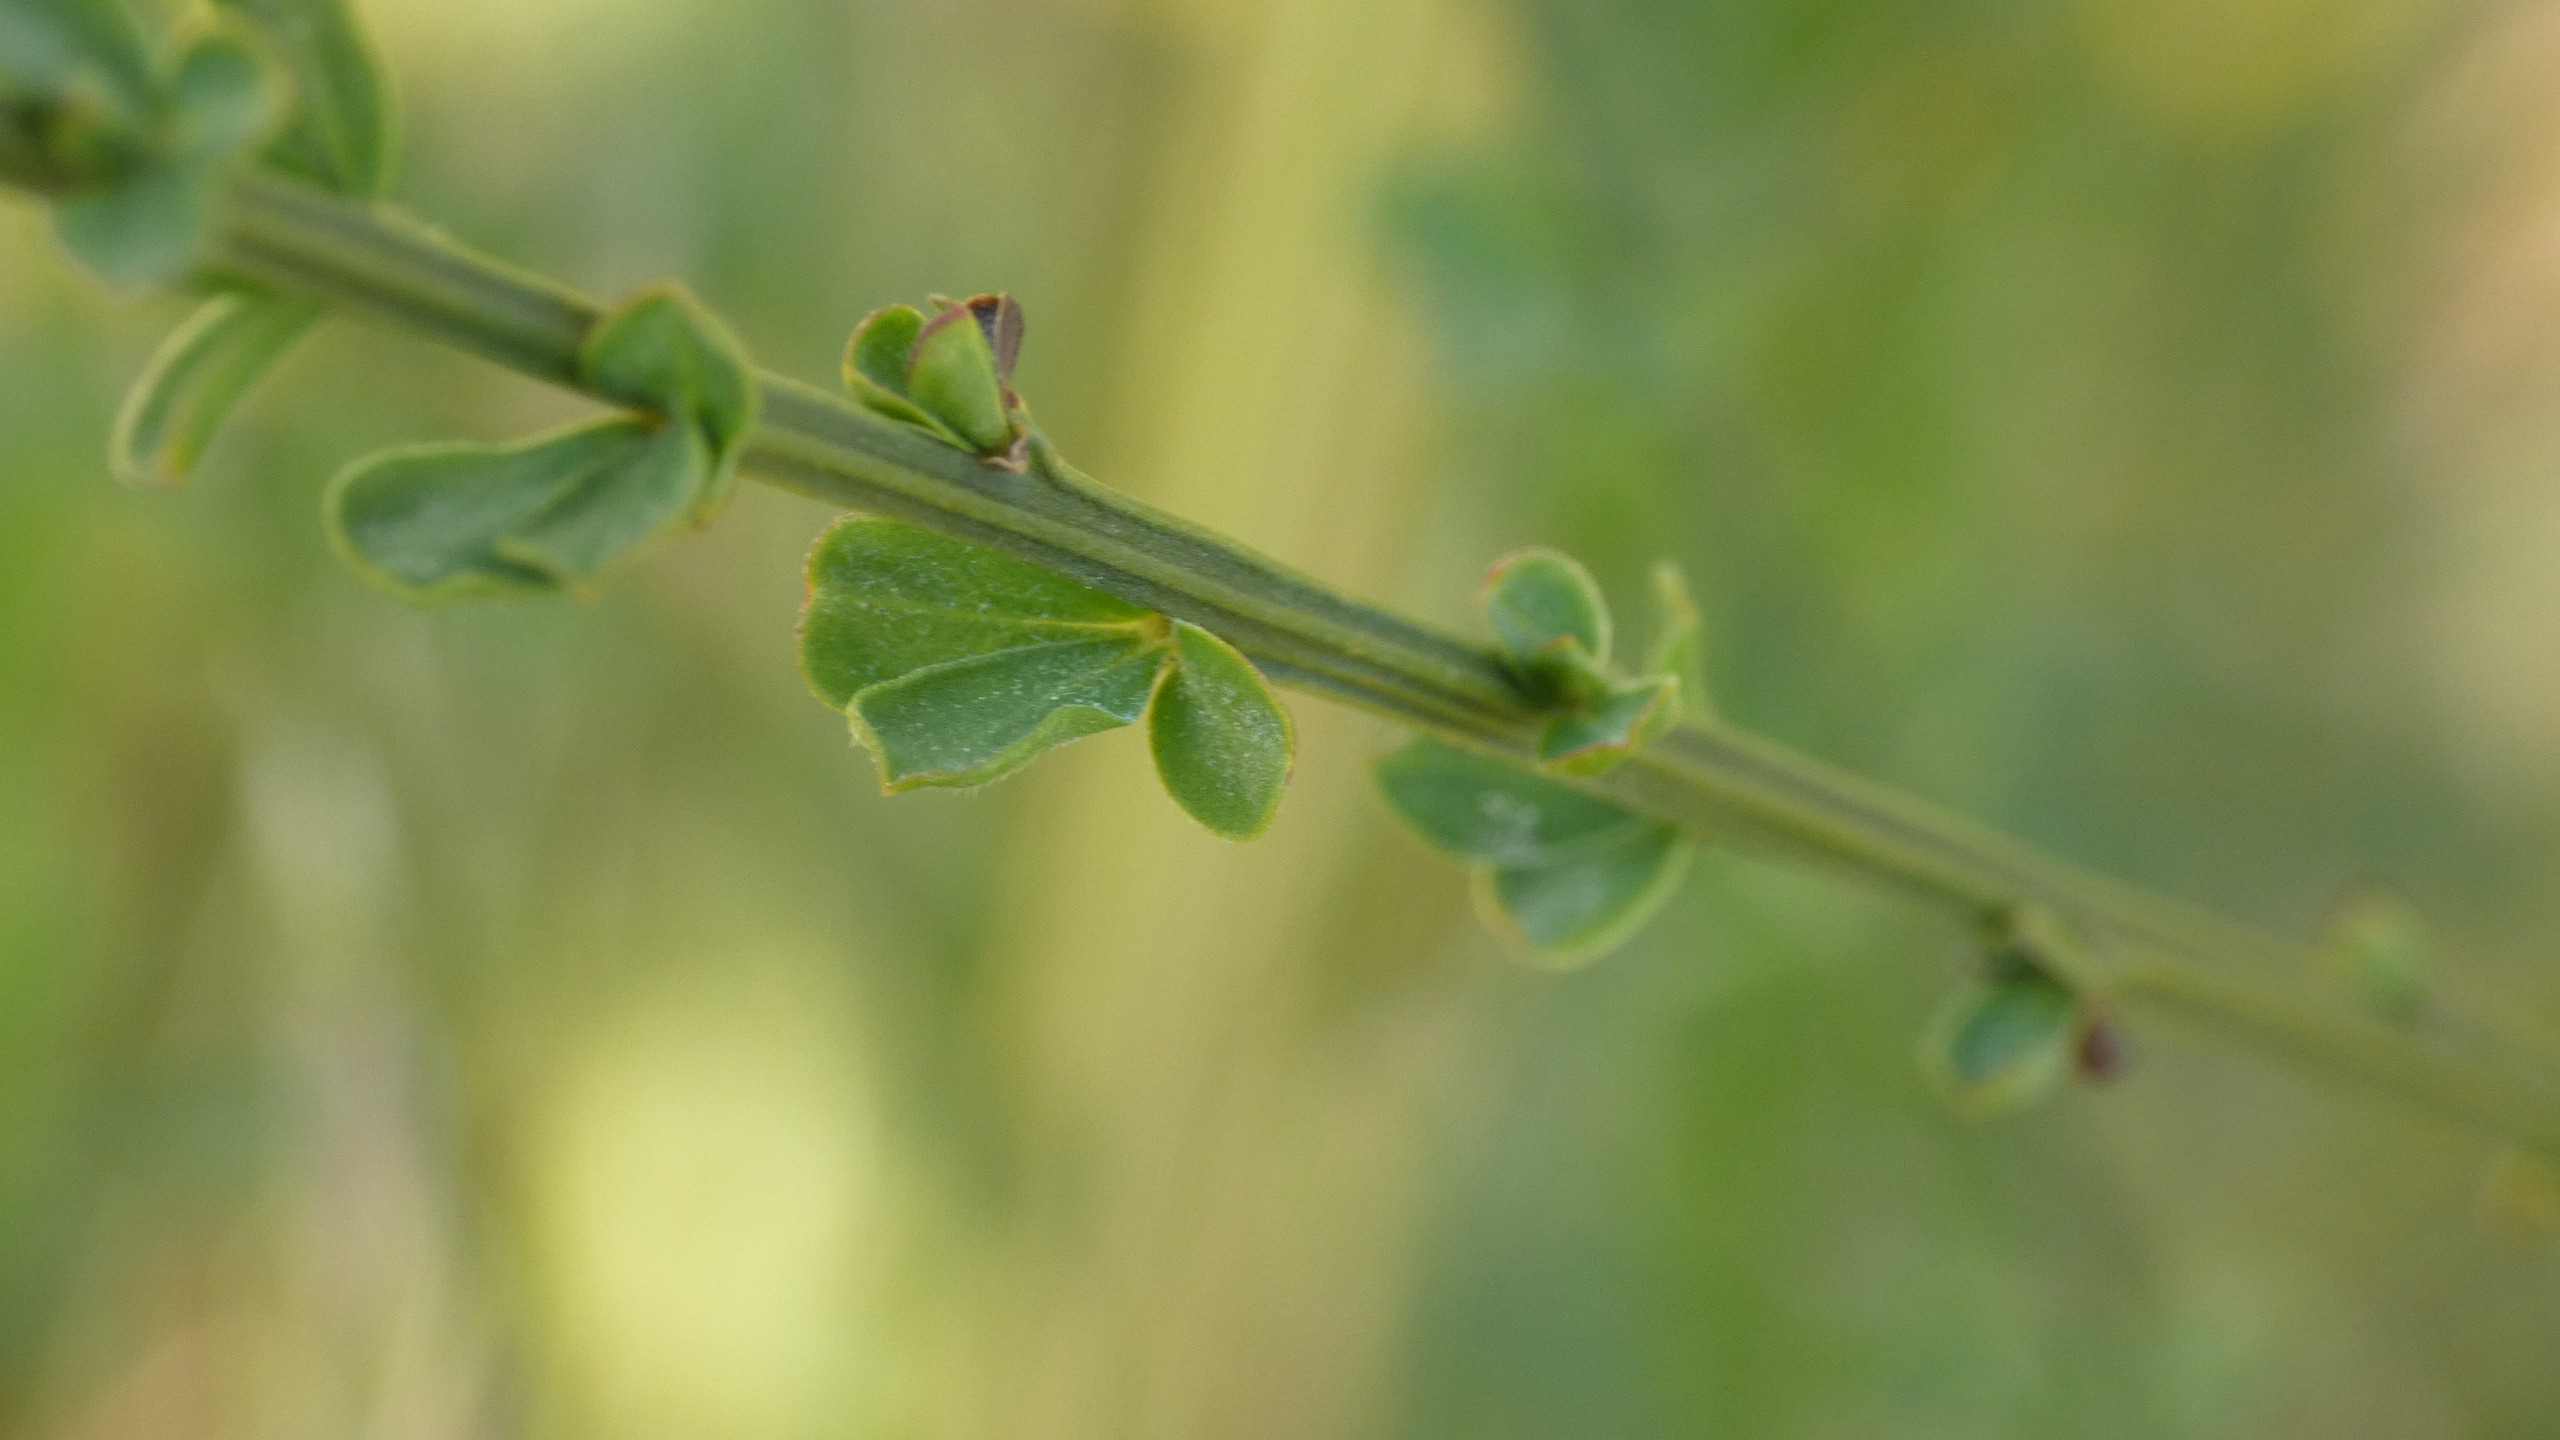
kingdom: Plantae
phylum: Tracheophyta
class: Magnoliopsida
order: Fabales
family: Fabaceae
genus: Cytisus
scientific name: Cytisus scoparius
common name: Almindelig gyvel
